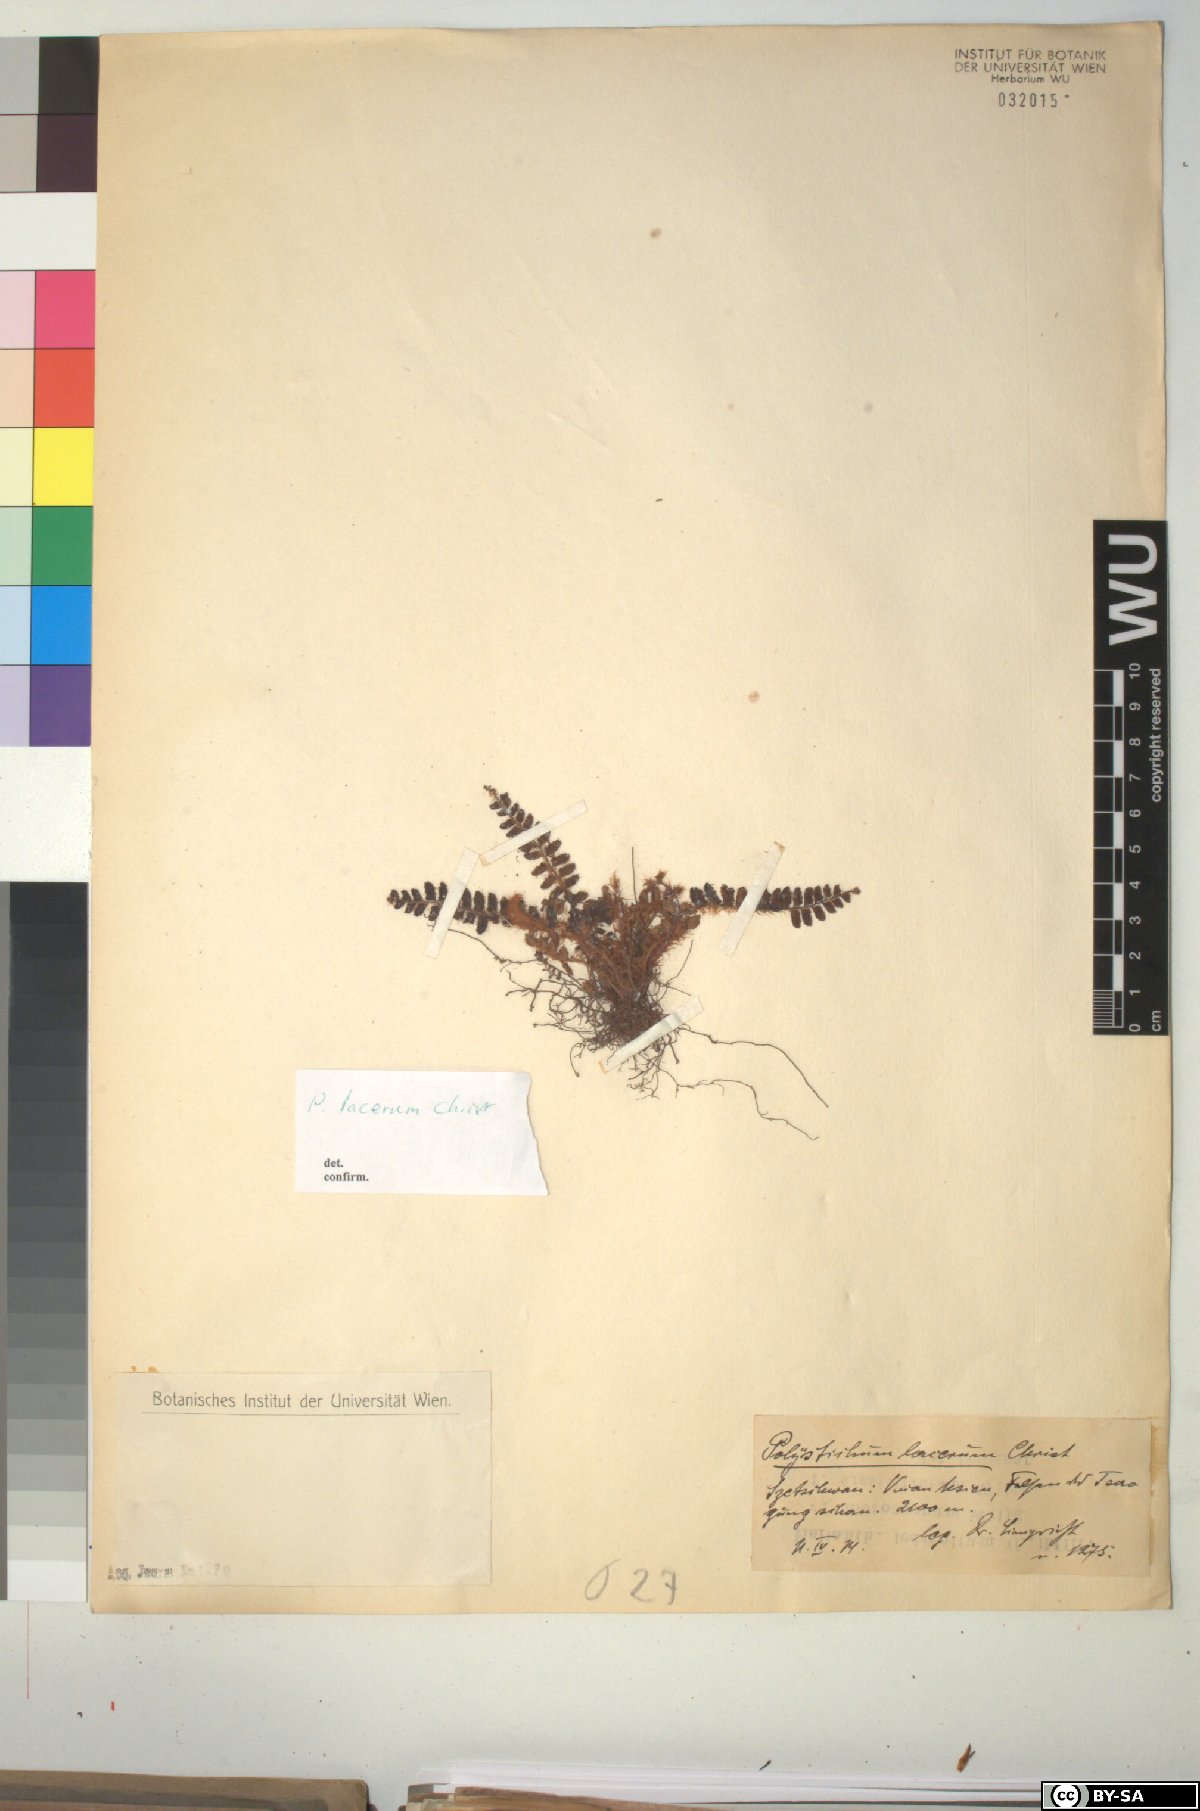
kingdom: Plantae
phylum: Tracheophyta
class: Polypodiopsida
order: Polypodiales
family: Dryopteridaceae
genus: Dryopteris
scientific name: Dryopteris lacera
